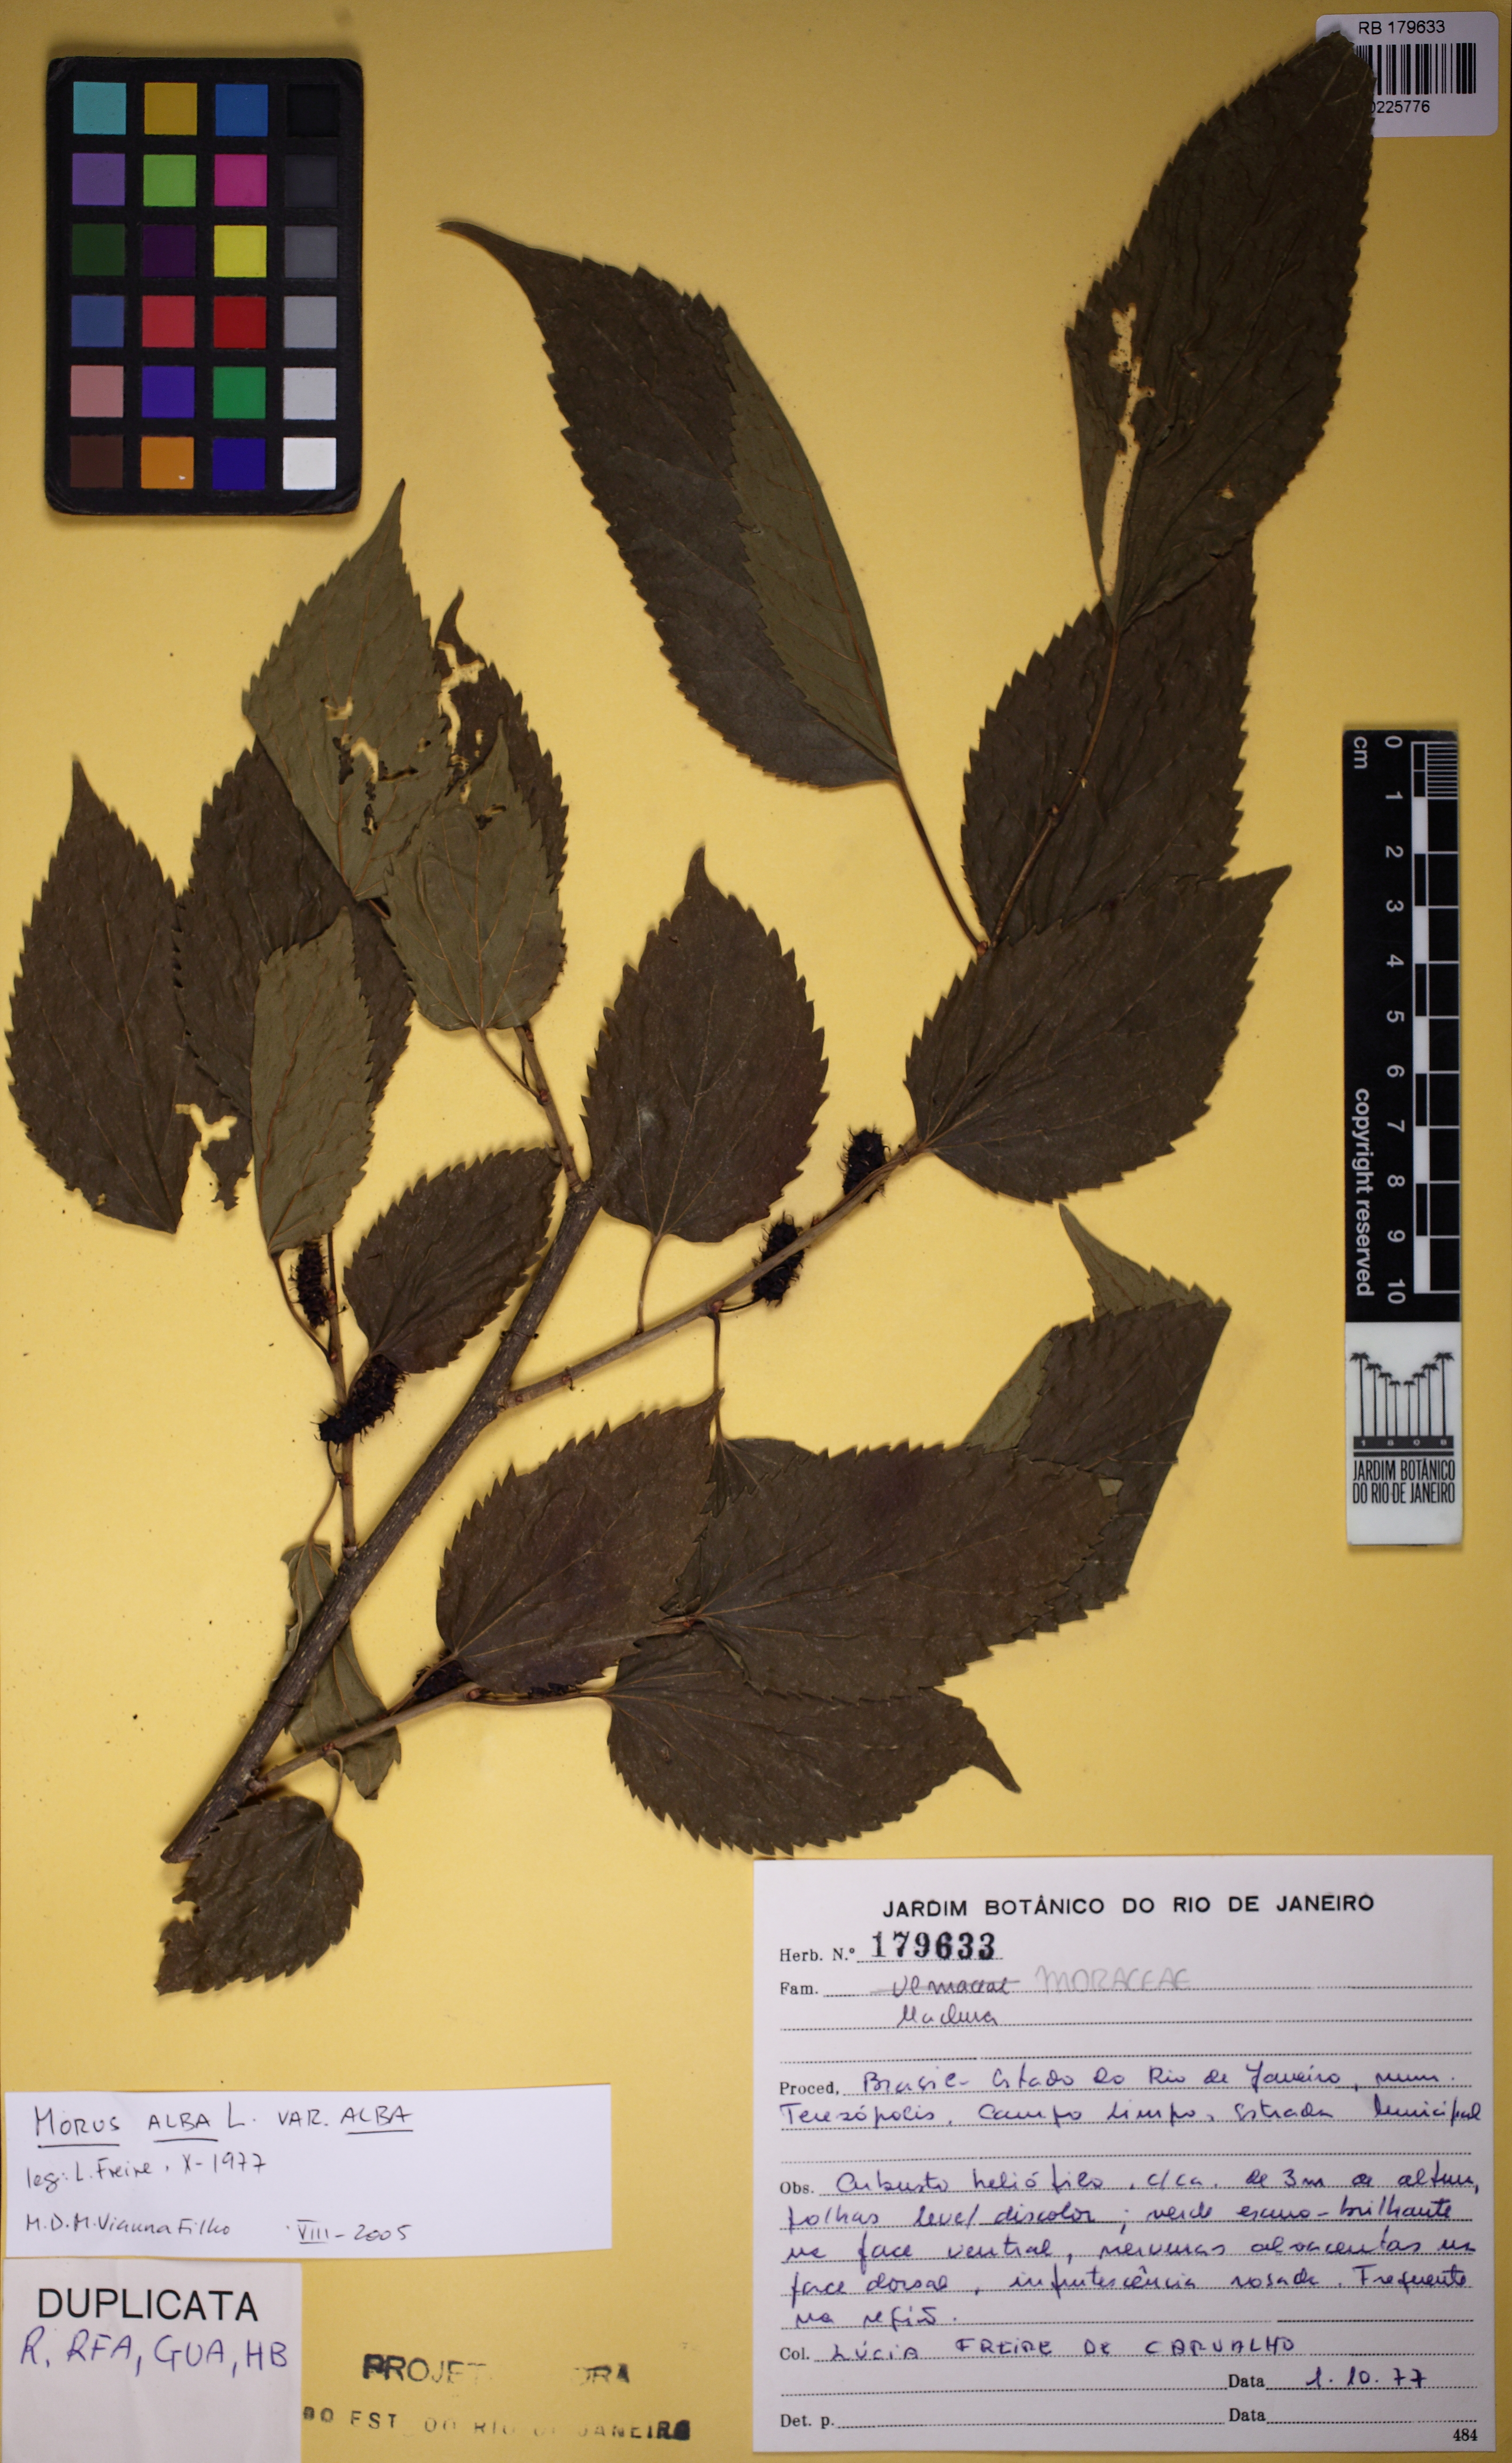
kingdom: Plantae
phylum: Tracheophyta
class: Magnoliopsida
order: Rosales
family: Moraceae
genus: Morus
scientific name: Morus alba
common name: White mulberry
